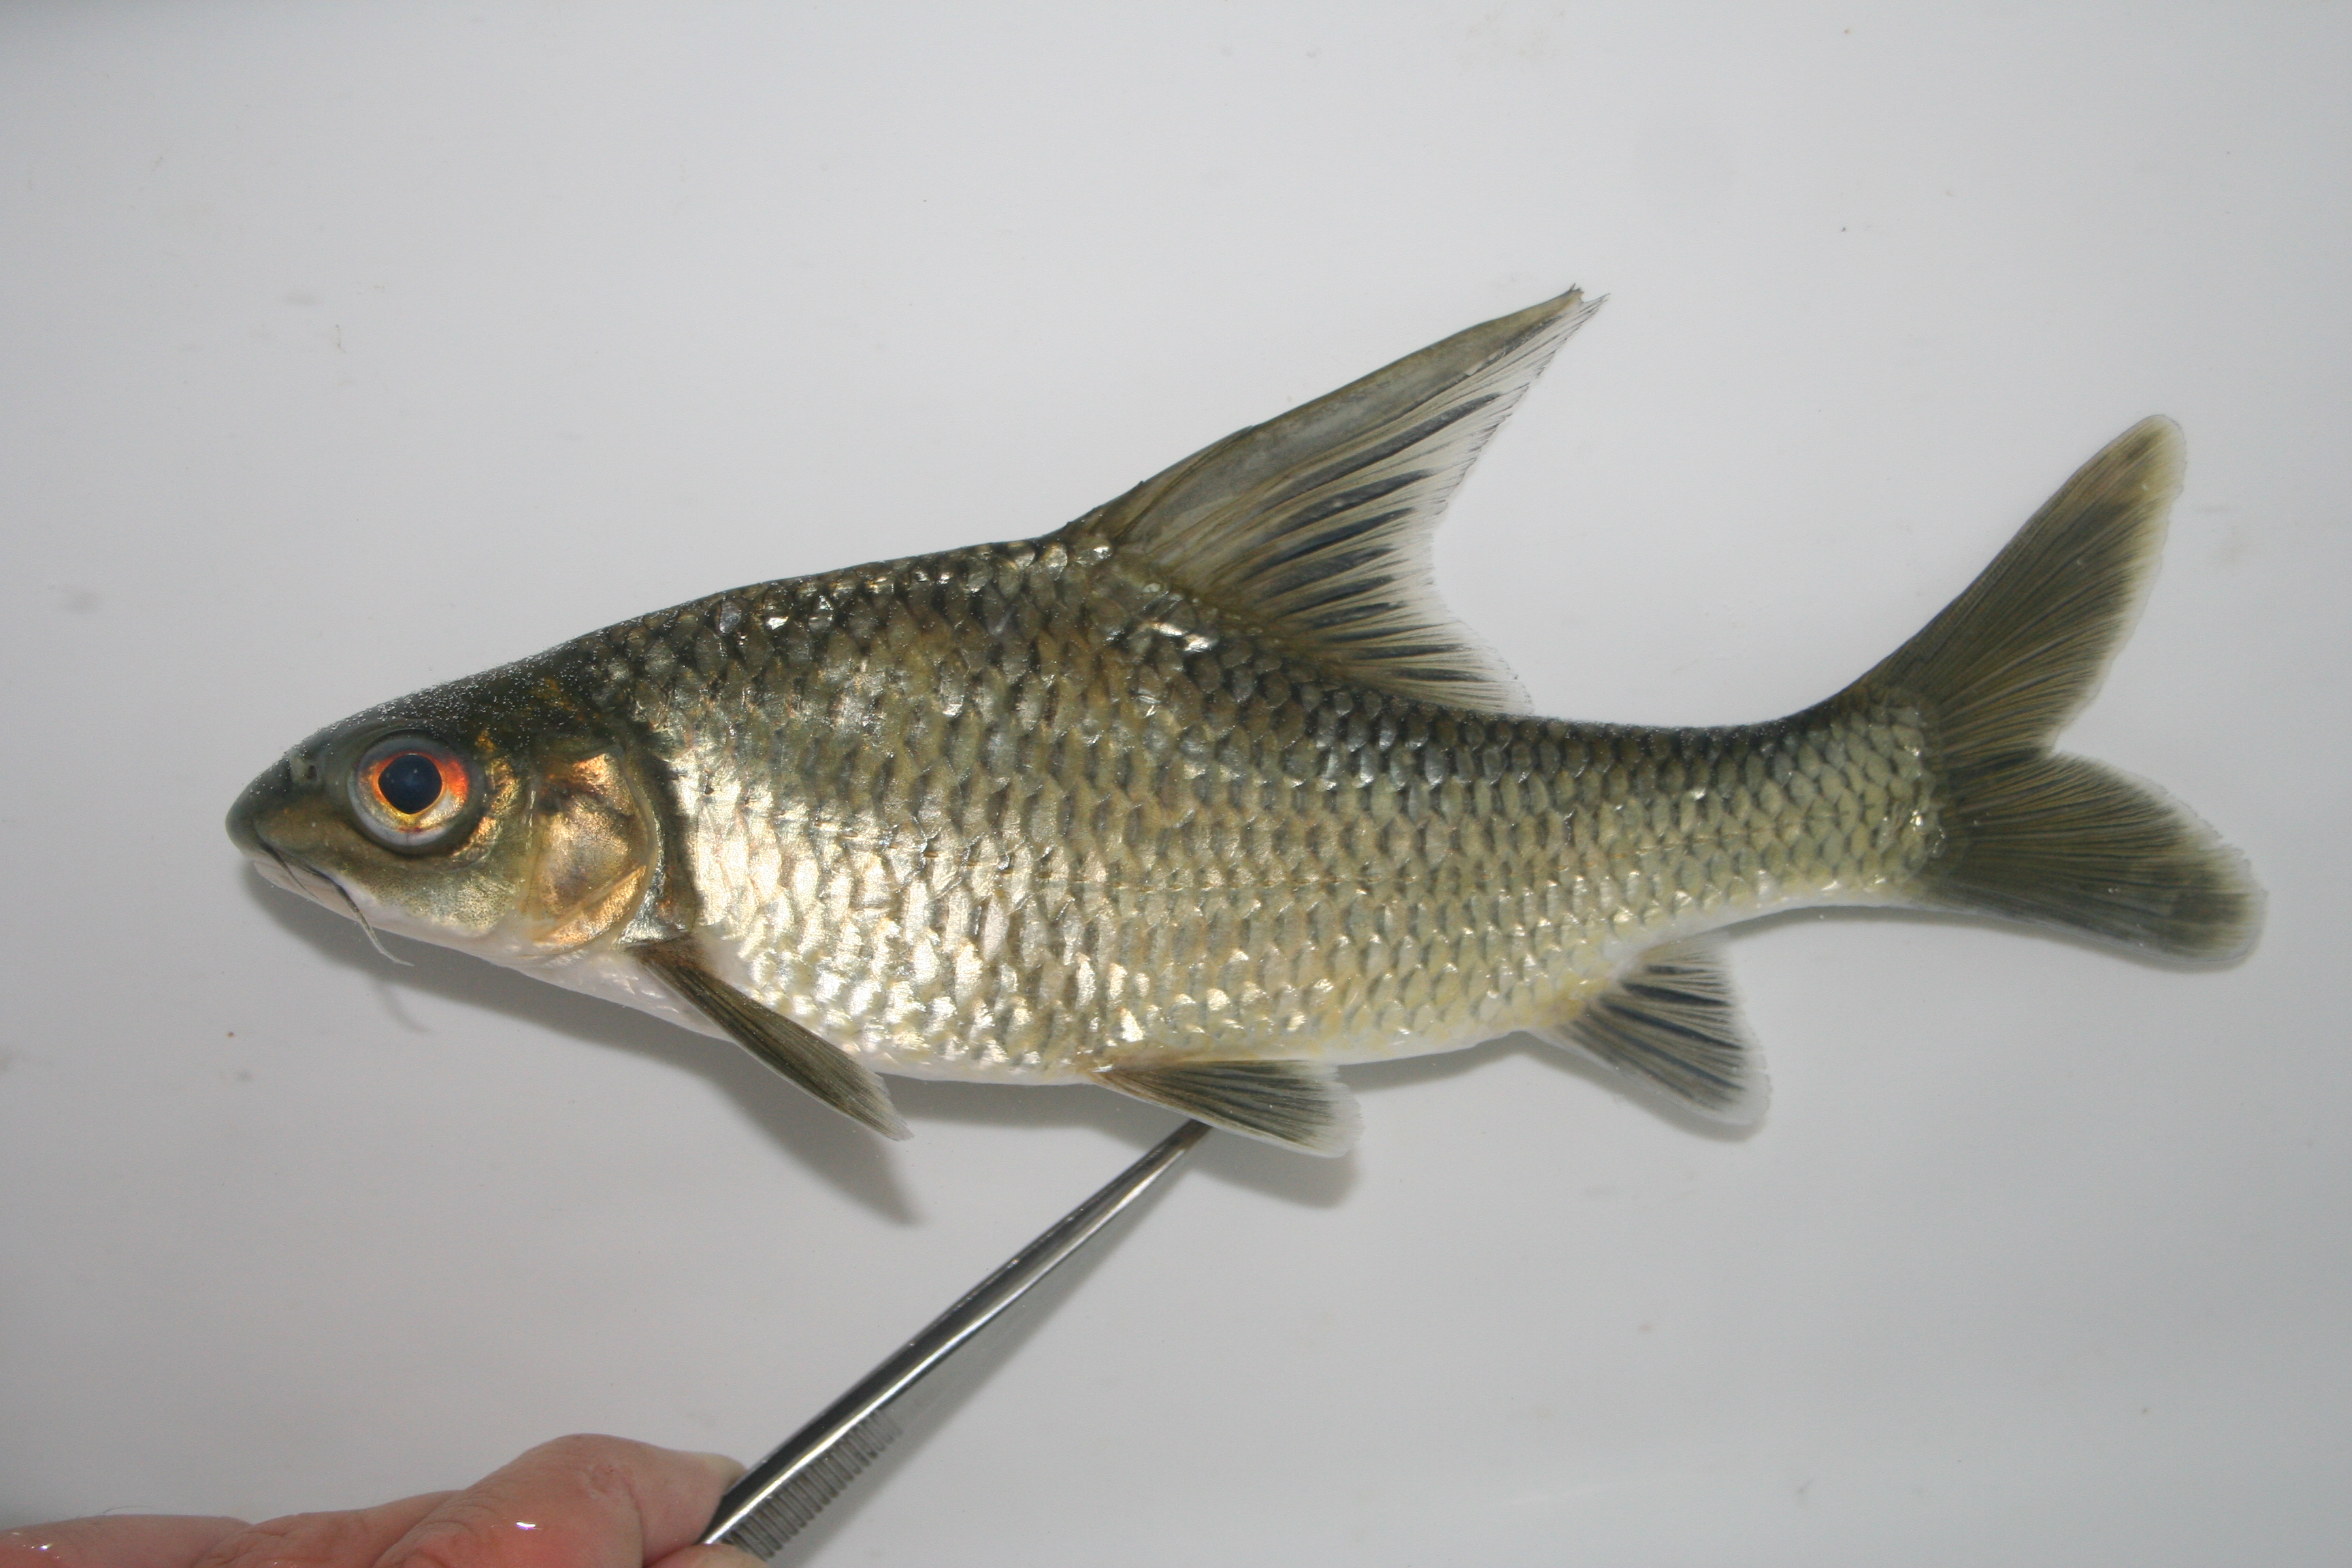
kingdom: Animalia
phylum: Chordata
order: Cypriniformes
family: Cyprinidae
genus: Labeobarbus
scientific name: Labeobarbus girardi
